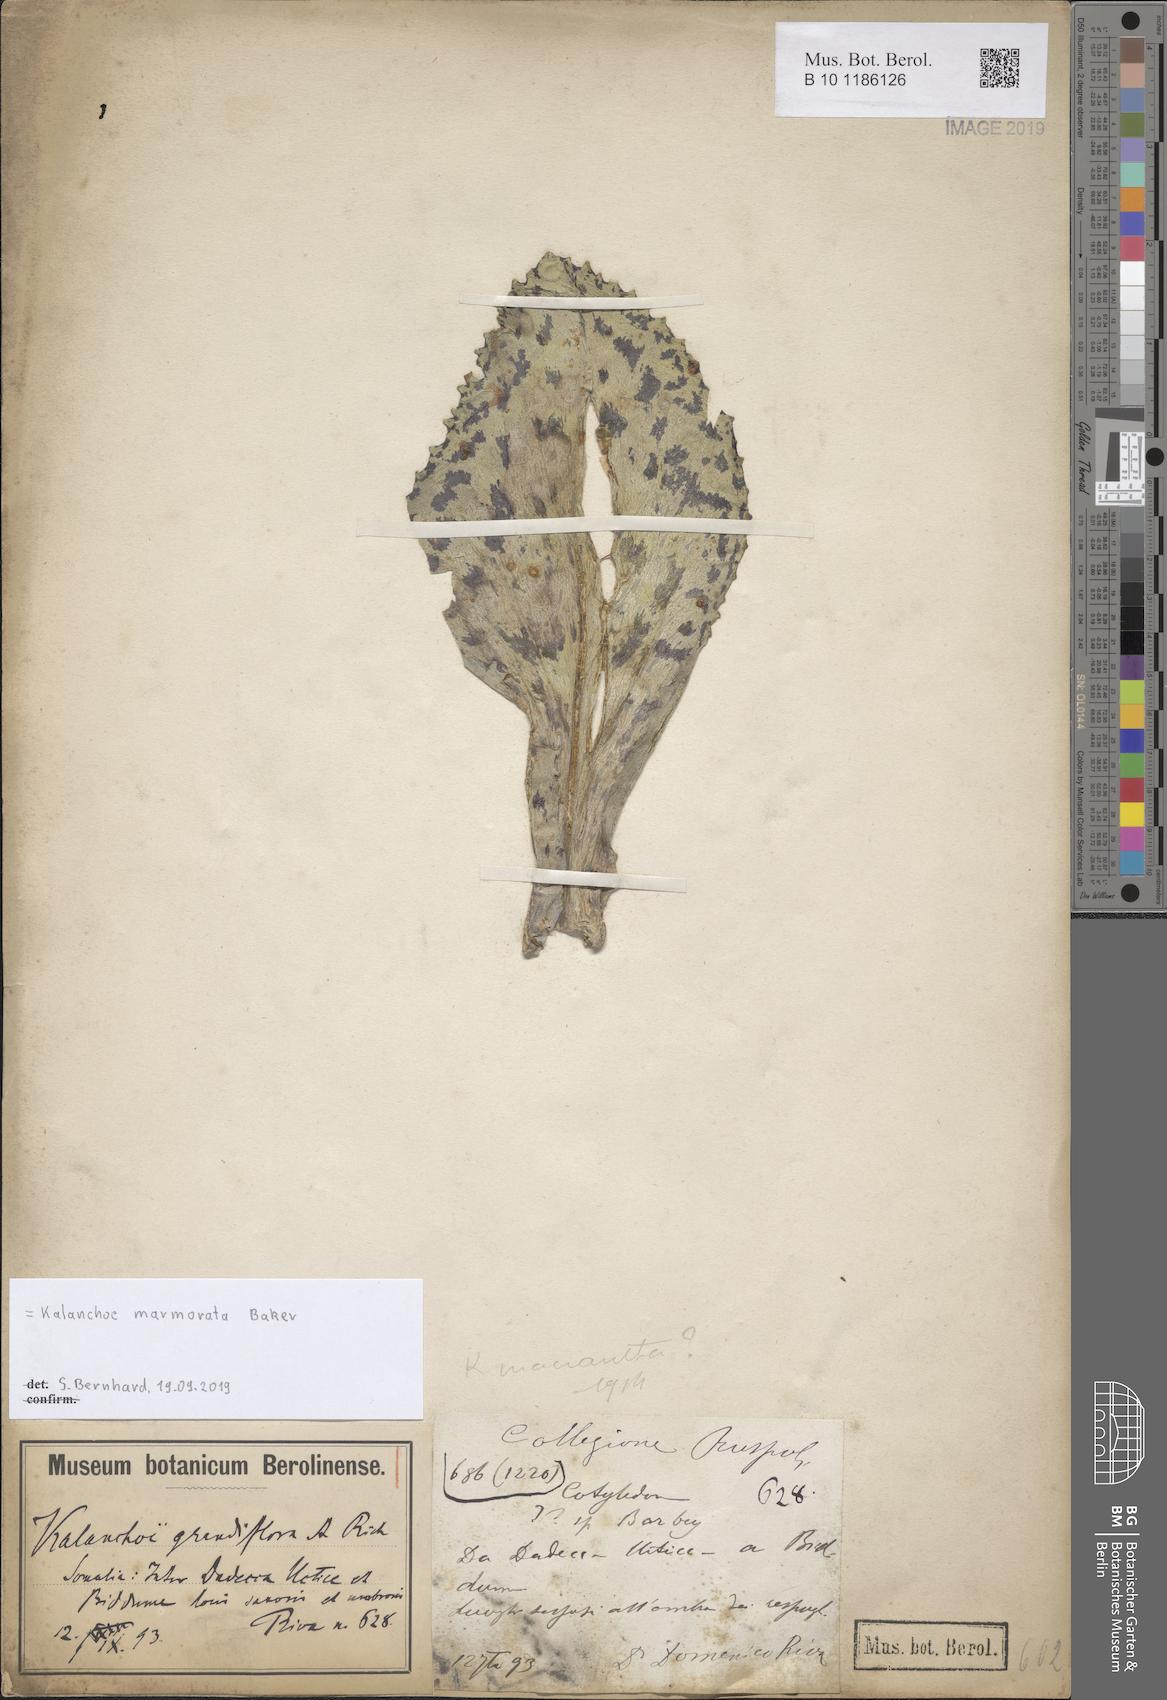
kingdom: Plantae
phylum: Tracheophyta
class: Magnoliopsida
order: Saxifragales
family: Crassulaceae
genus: Kalanchoe
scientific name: Kalanchoe marmorata
